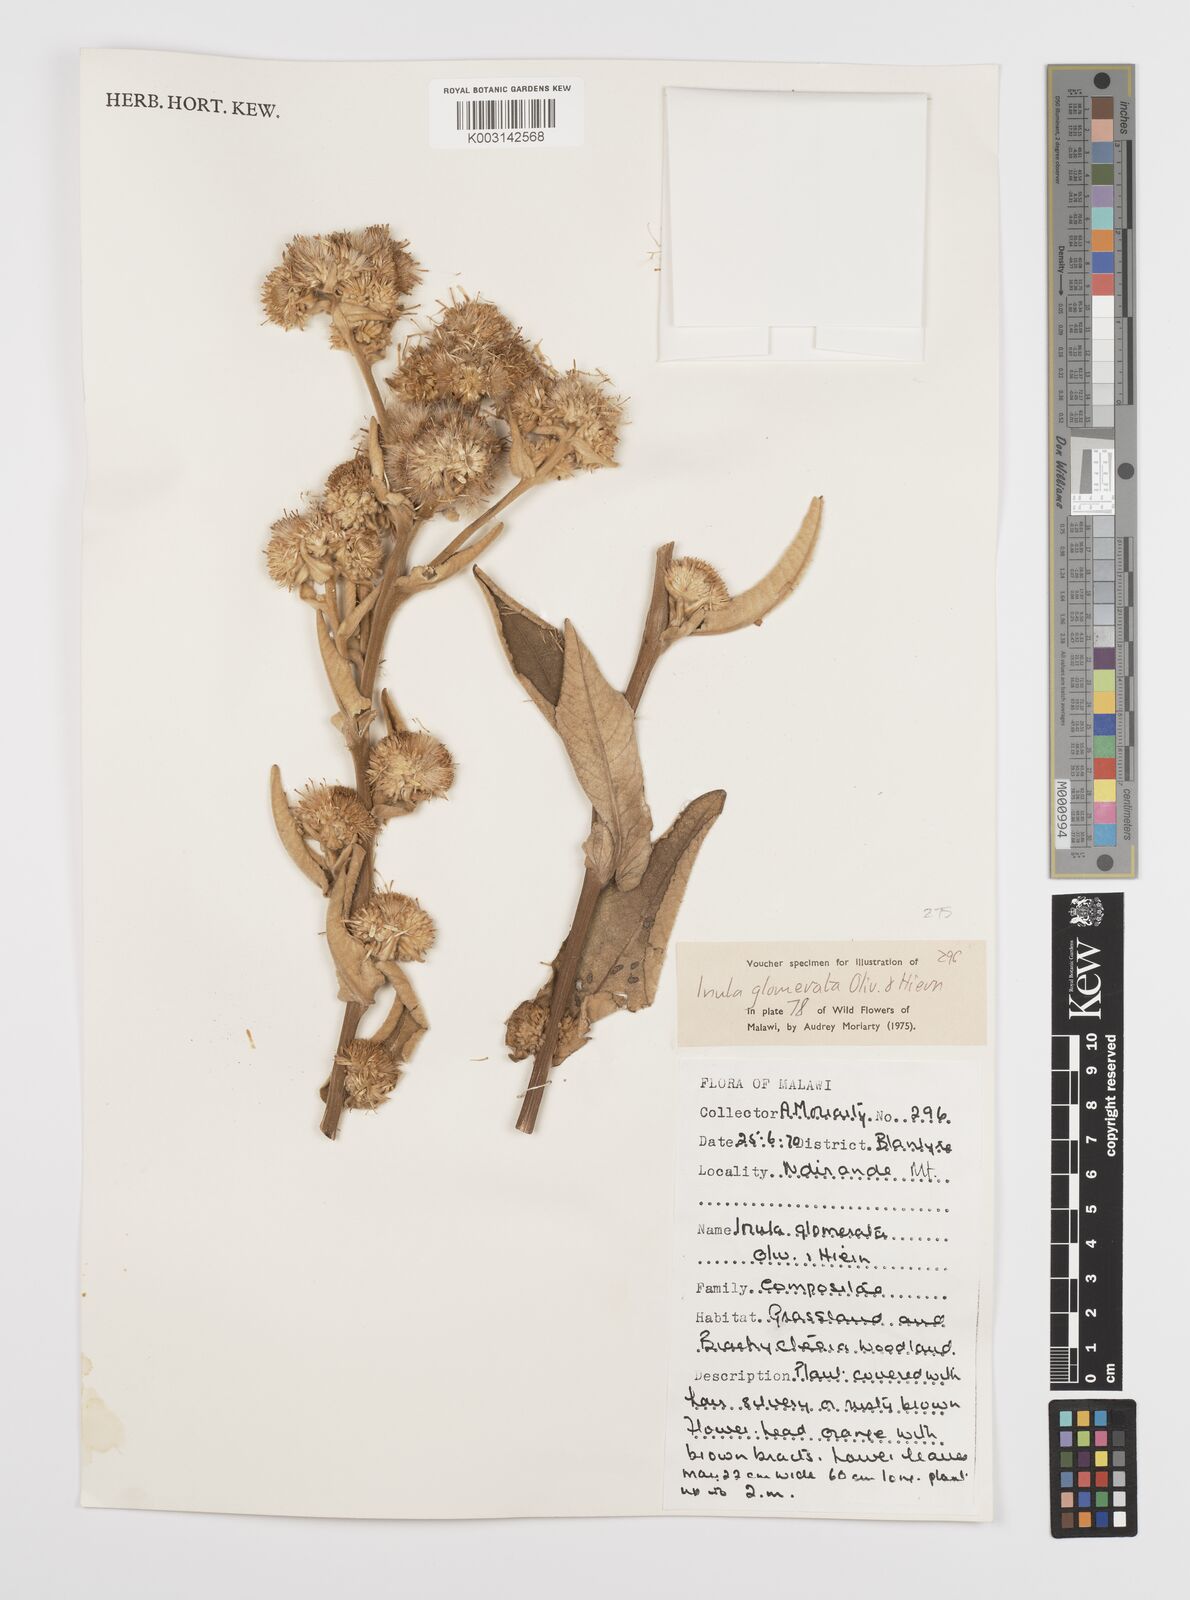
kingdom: Plantae
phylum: Tracheophyta
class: Magnoliopsida
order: Asterales
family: Asteraceae
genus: Inula
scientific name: Inula glomerata
